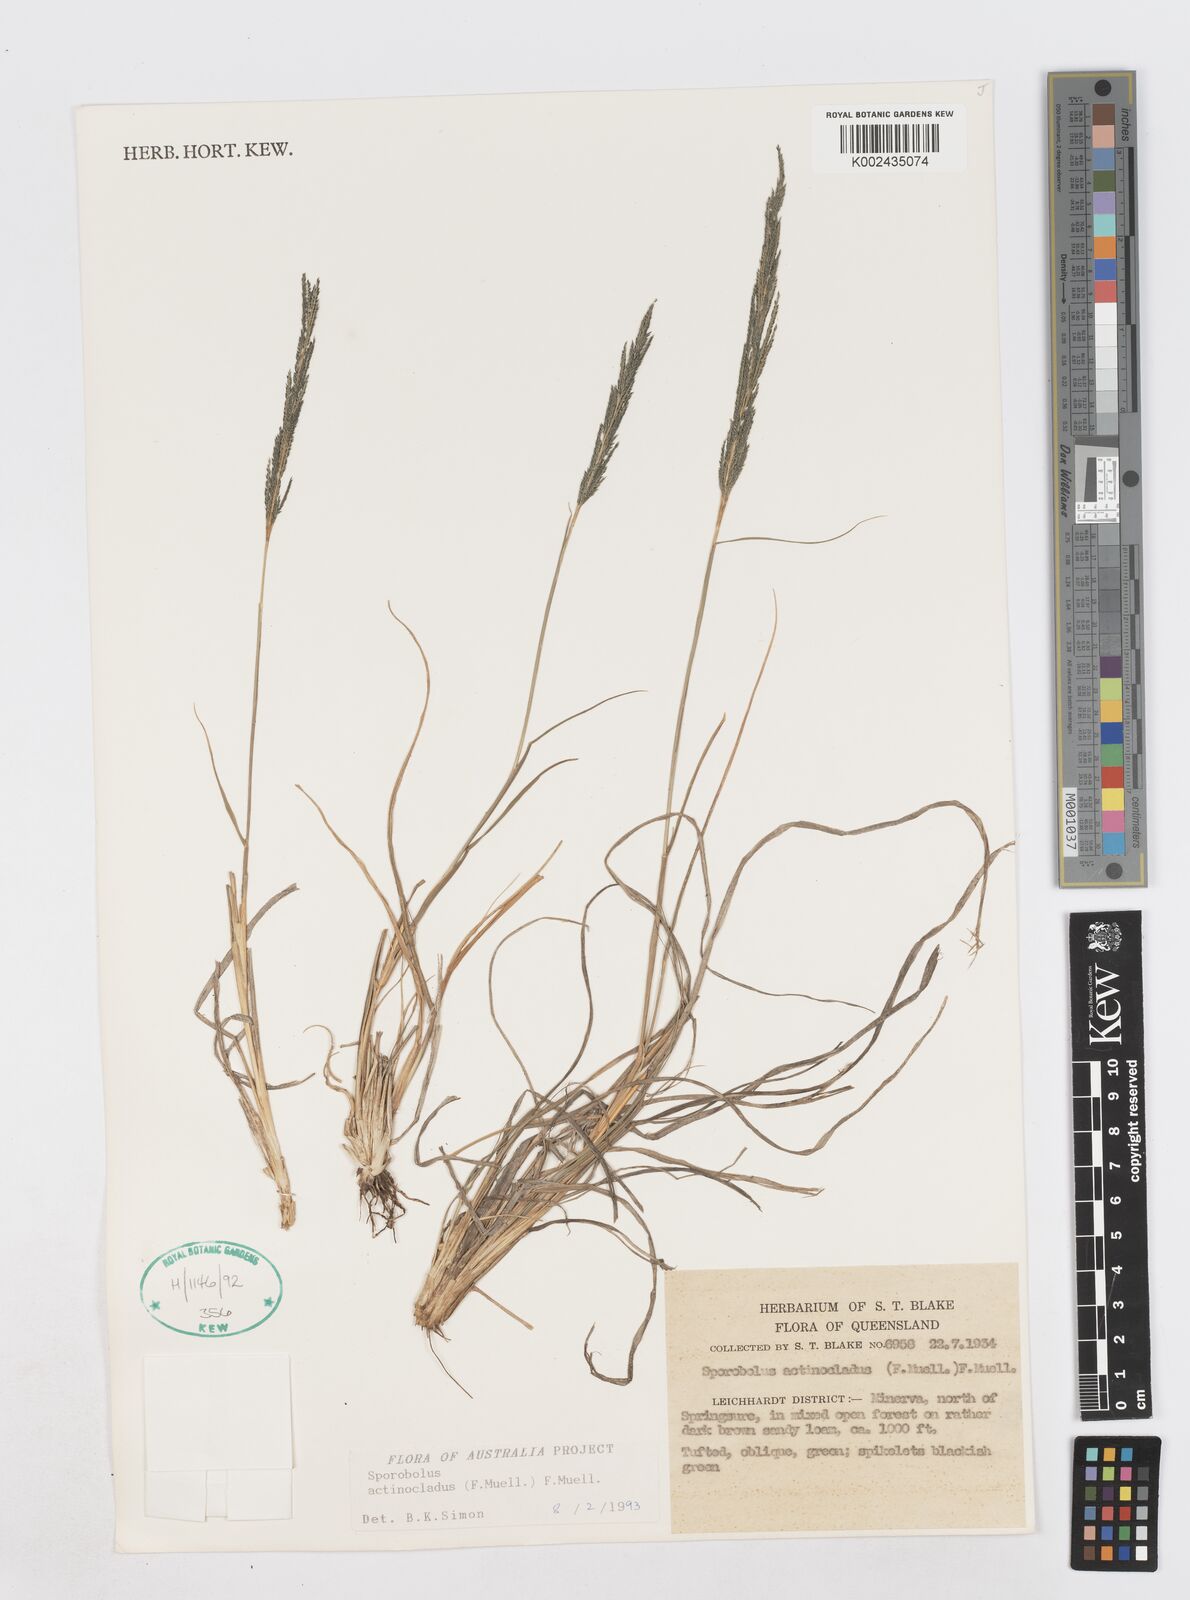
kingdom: Plantae
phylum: Tracheophyta
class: Liliopsida
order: Poales
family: Poaceae
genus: Sporobolus
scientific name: Sporobolus actinocladus
